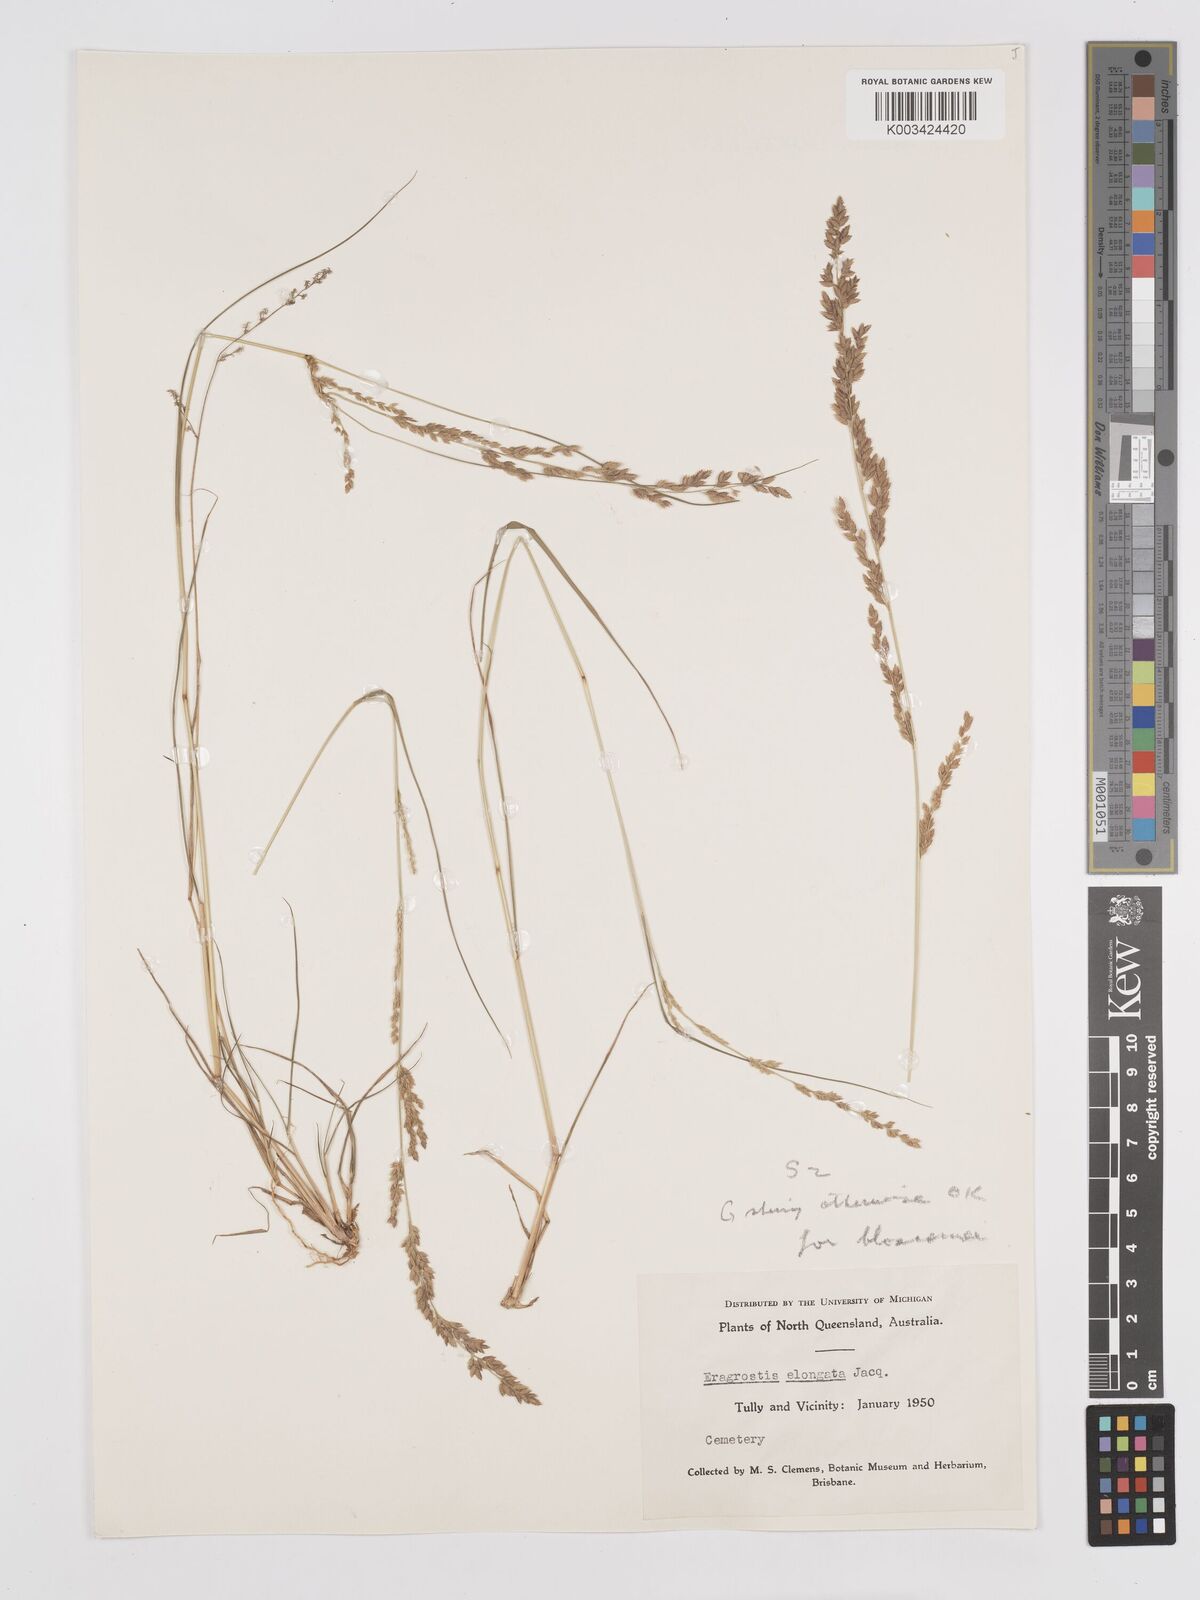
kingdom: Plantae
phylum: Tracheophyta
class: Liliopsida
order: Poales
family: Poaceae
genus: Eragrostis
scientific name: Eragrostis elongata
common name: Long lovegrass
